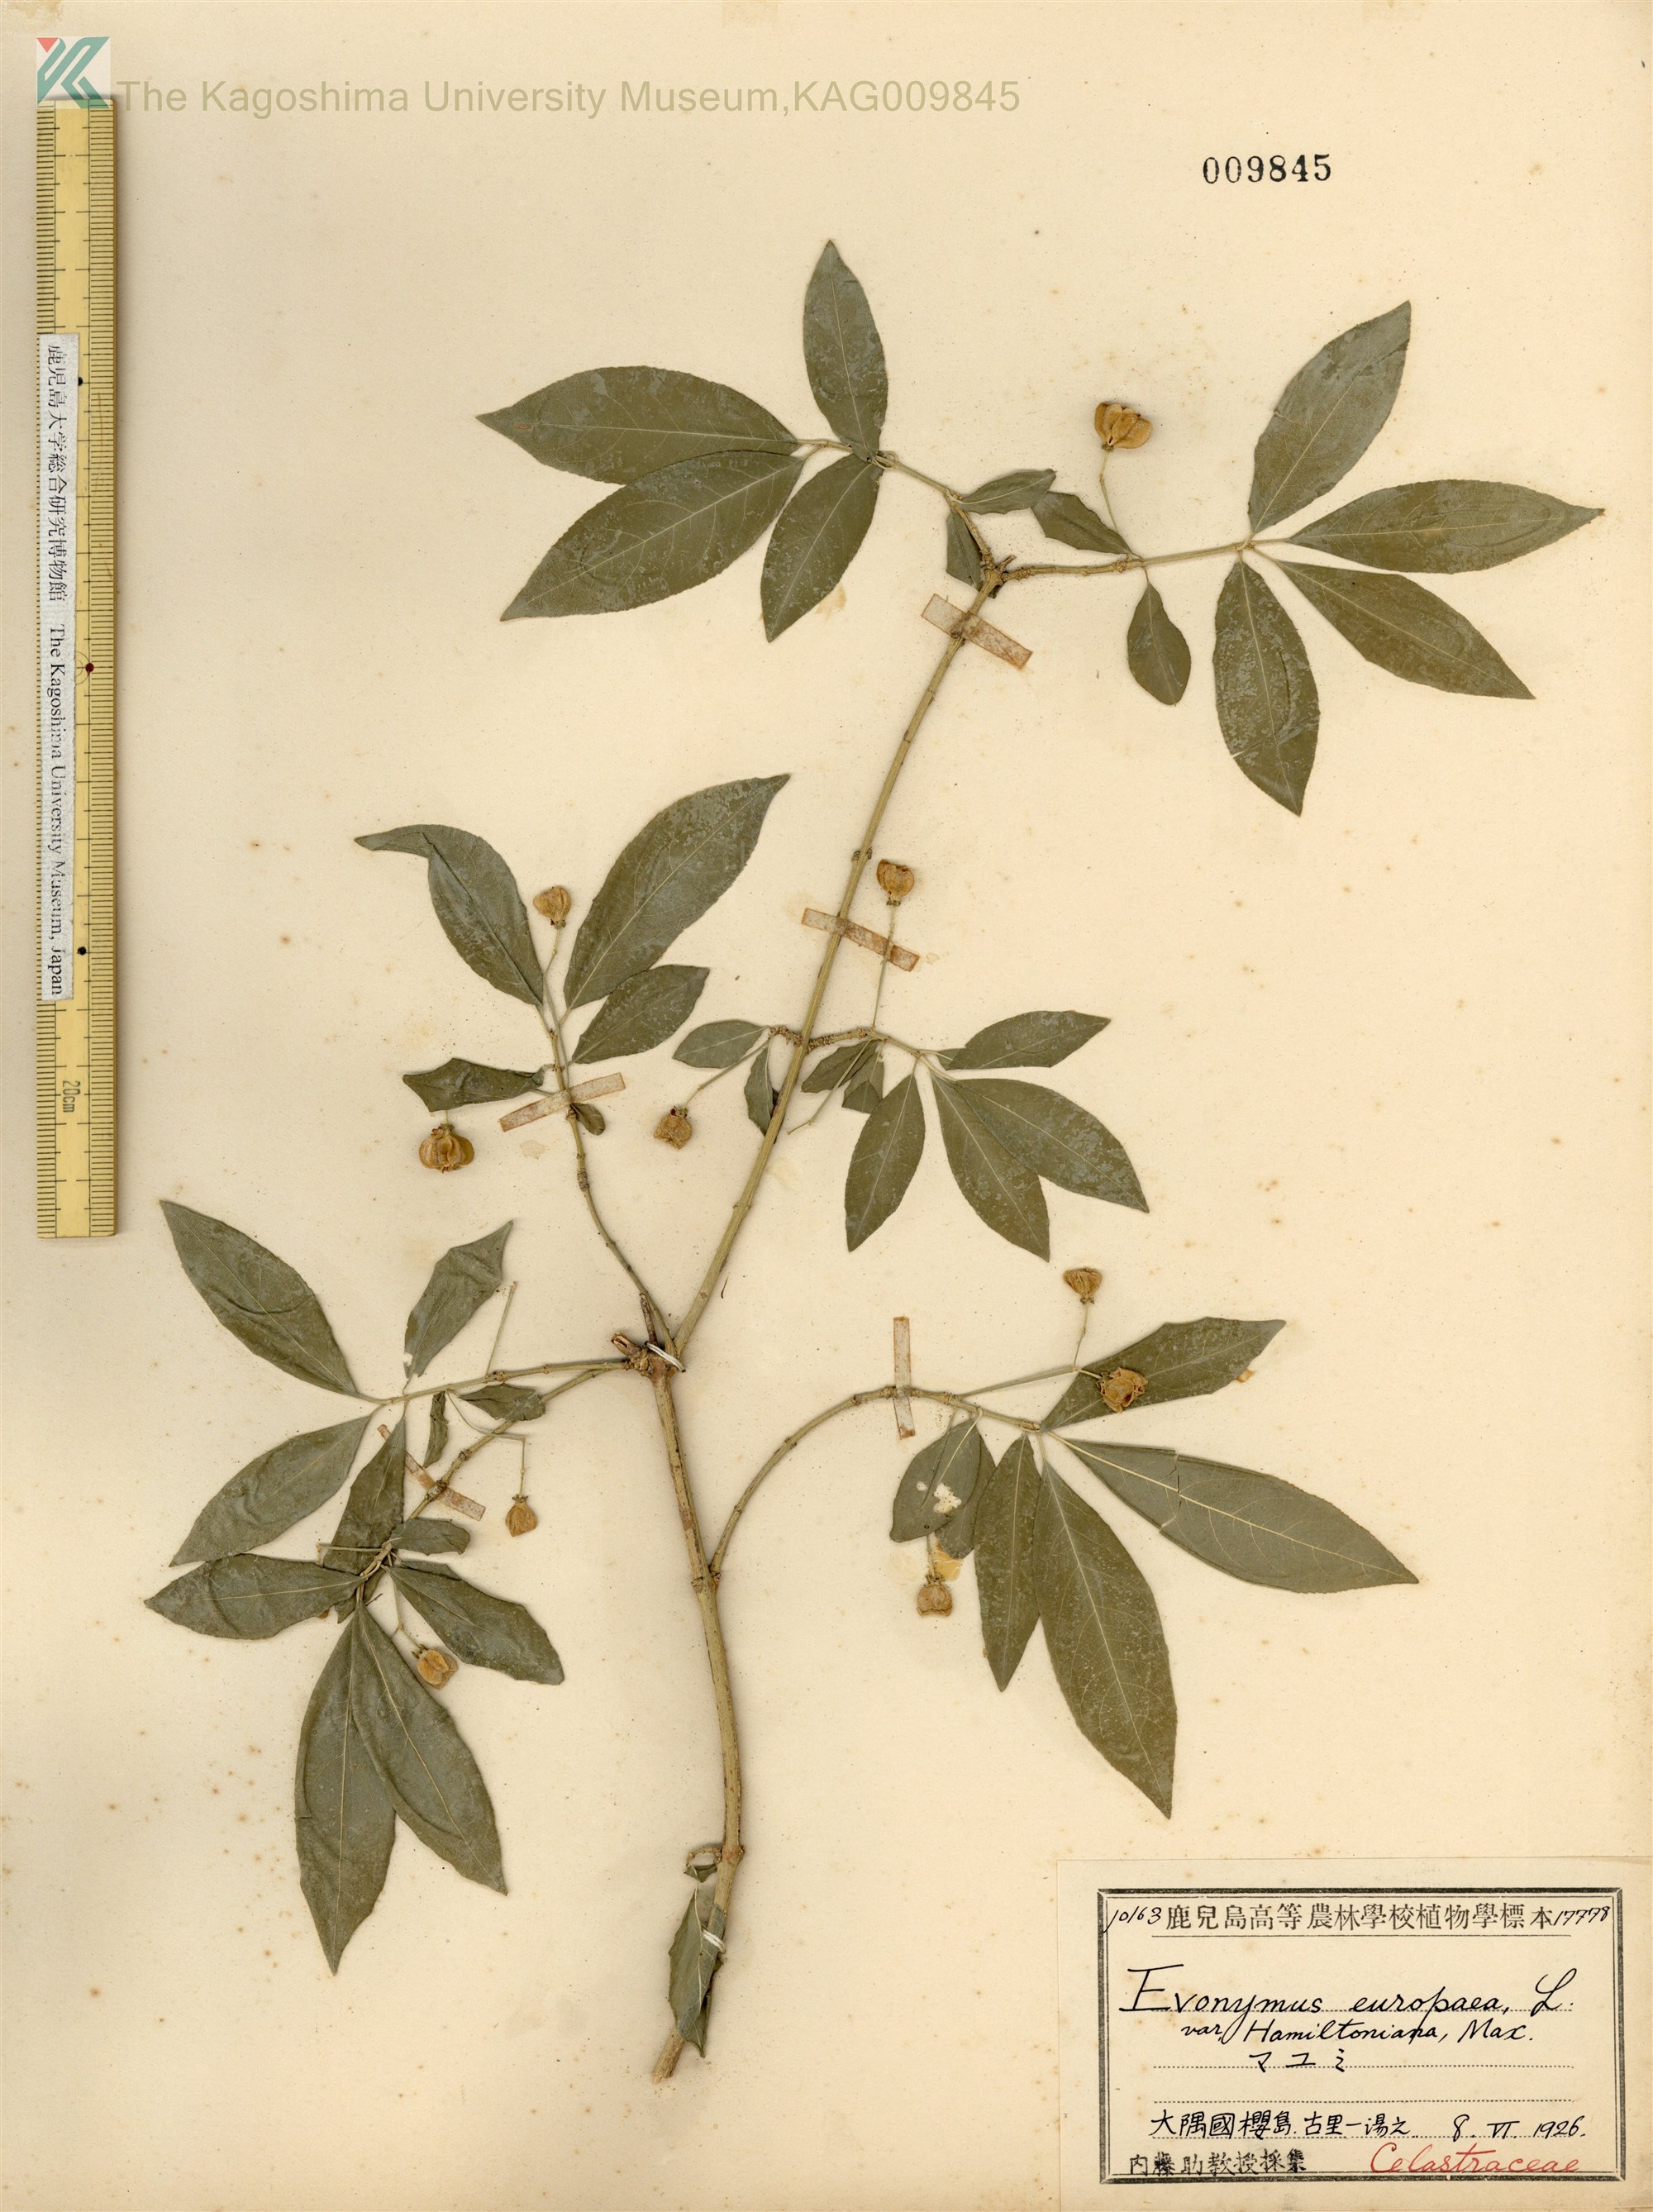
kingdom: Plantae
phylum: Tracheophyta
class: Magnoliopsida
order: Celastrales
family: Celastraceae
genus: Euonymus
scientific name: Euonymus hamiltonianus
